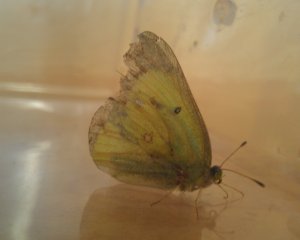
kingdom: Animalia
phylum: Arthropoda
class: Insecta
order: Lepidoptera
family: Pieridae
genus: Colias
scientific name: Colias philodice
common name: Clouded Sulphur
